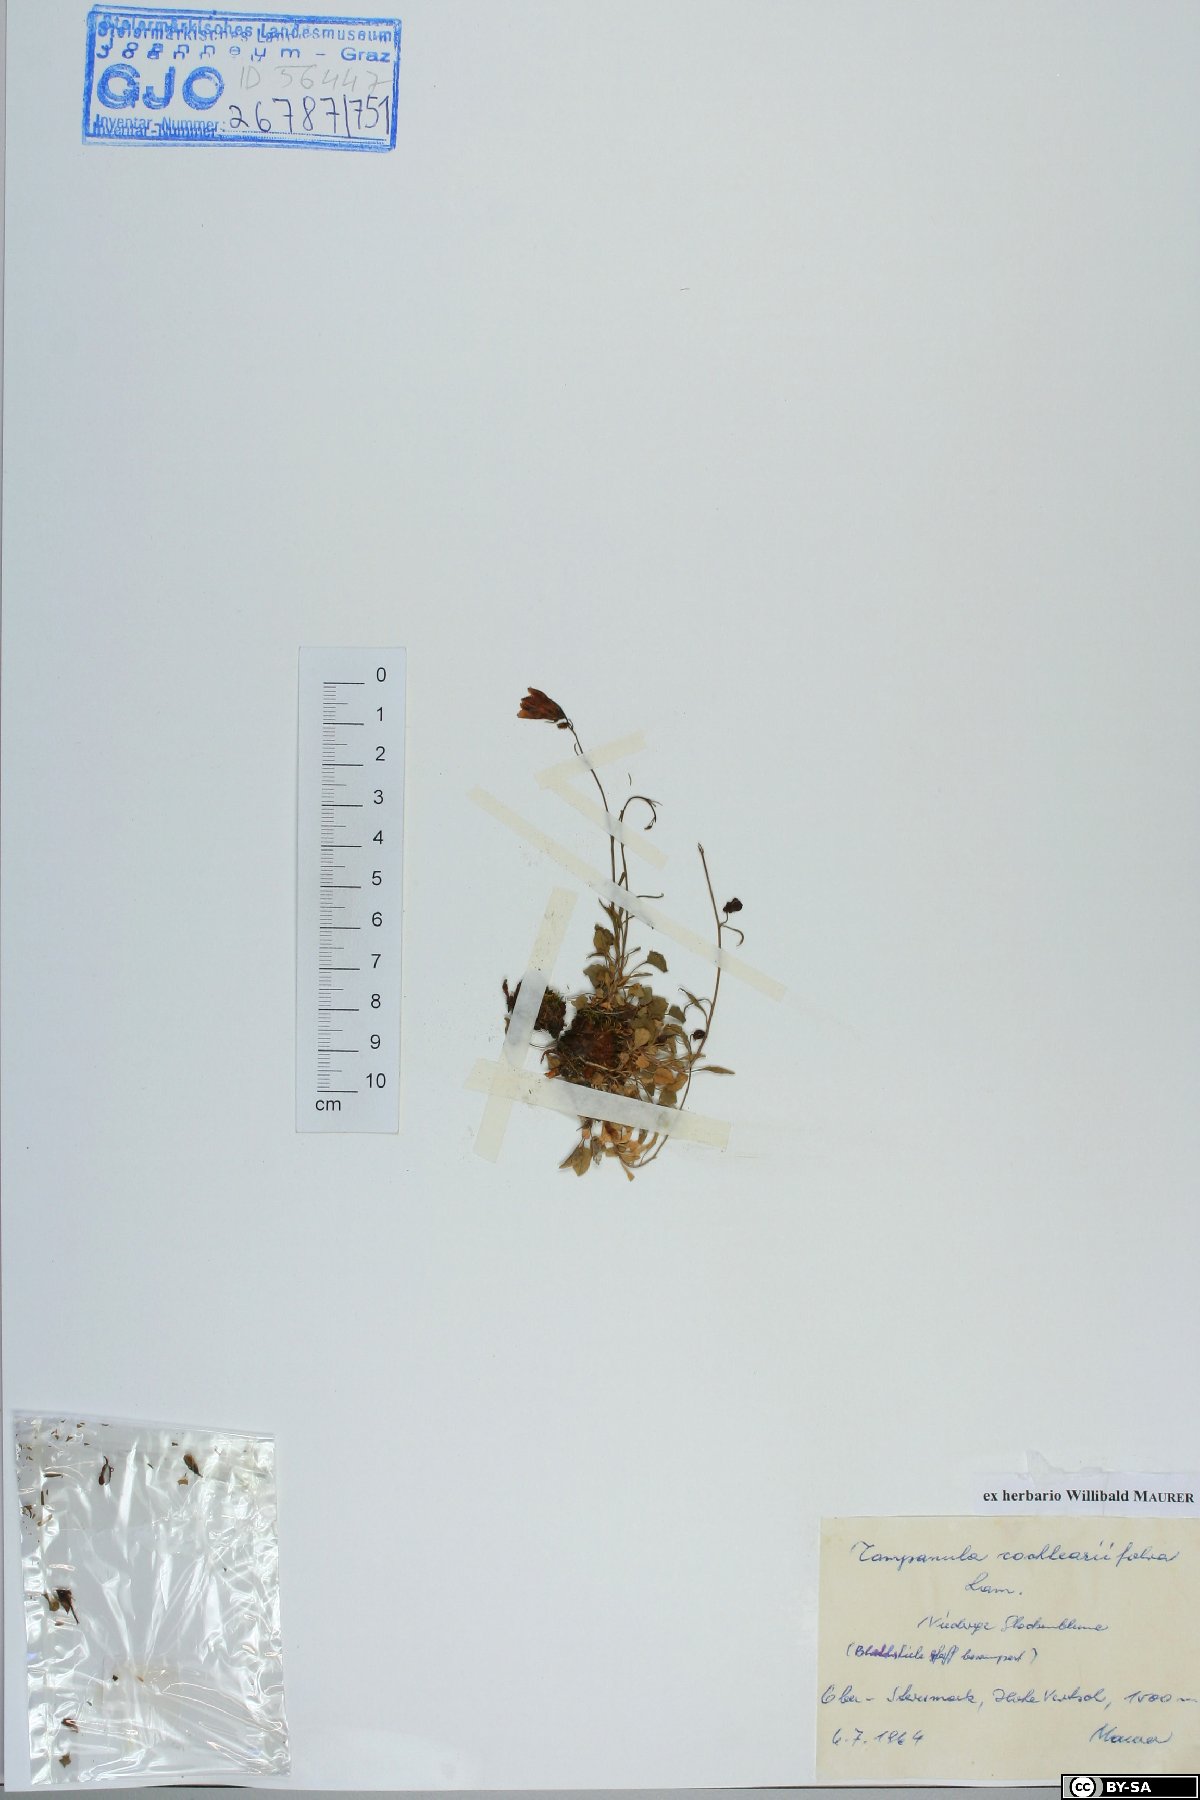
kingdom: Plantae
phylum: Tracheophyta
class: Magnoliopsida
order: Asterales
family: Campanulaceae
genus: Campanula
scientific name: Campanula cochleariifolia
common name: Fairies'-thimbles
